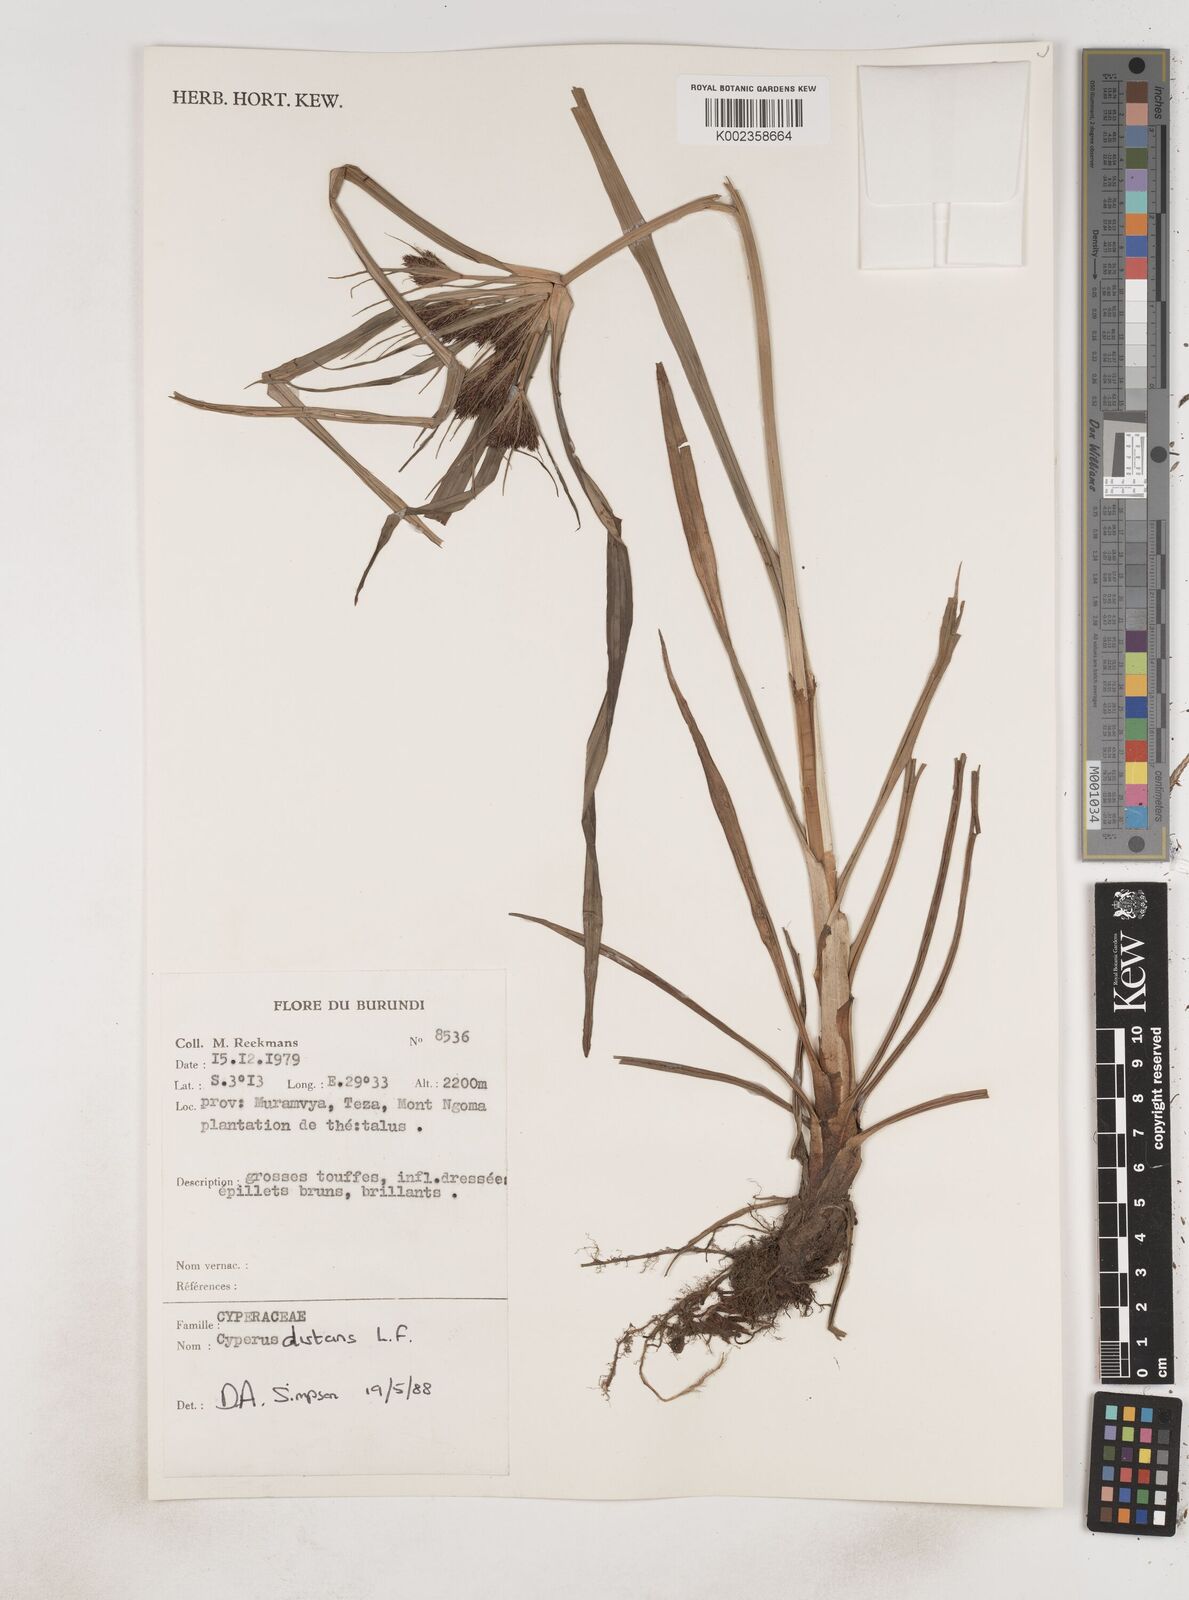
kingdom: Plantae
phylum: Tracheophyta
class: Liliopsida
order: Poales
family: Cyperaceae
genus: Cyperus
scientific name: Cyperus distans
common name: Slender cyperus
